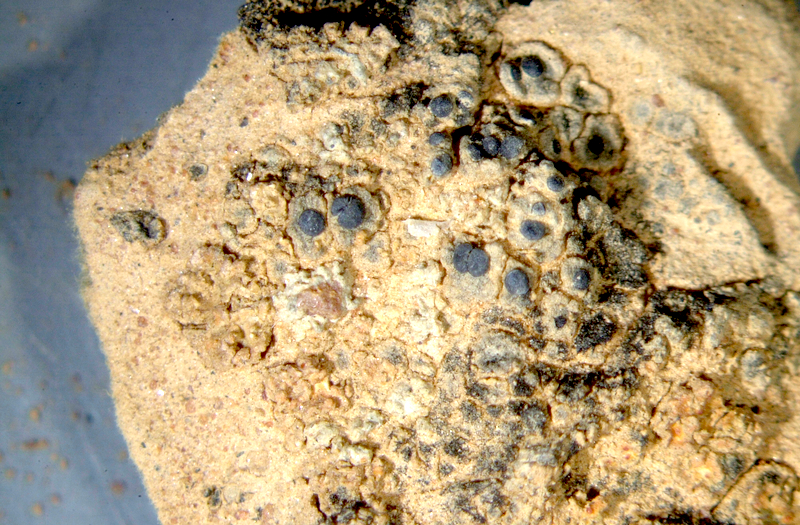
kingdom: Fungi
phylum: Ascomycota
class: Lecanoromycetes
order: Lecanorales
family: Parmeliaceae
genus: Lichen
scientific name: Lichen
